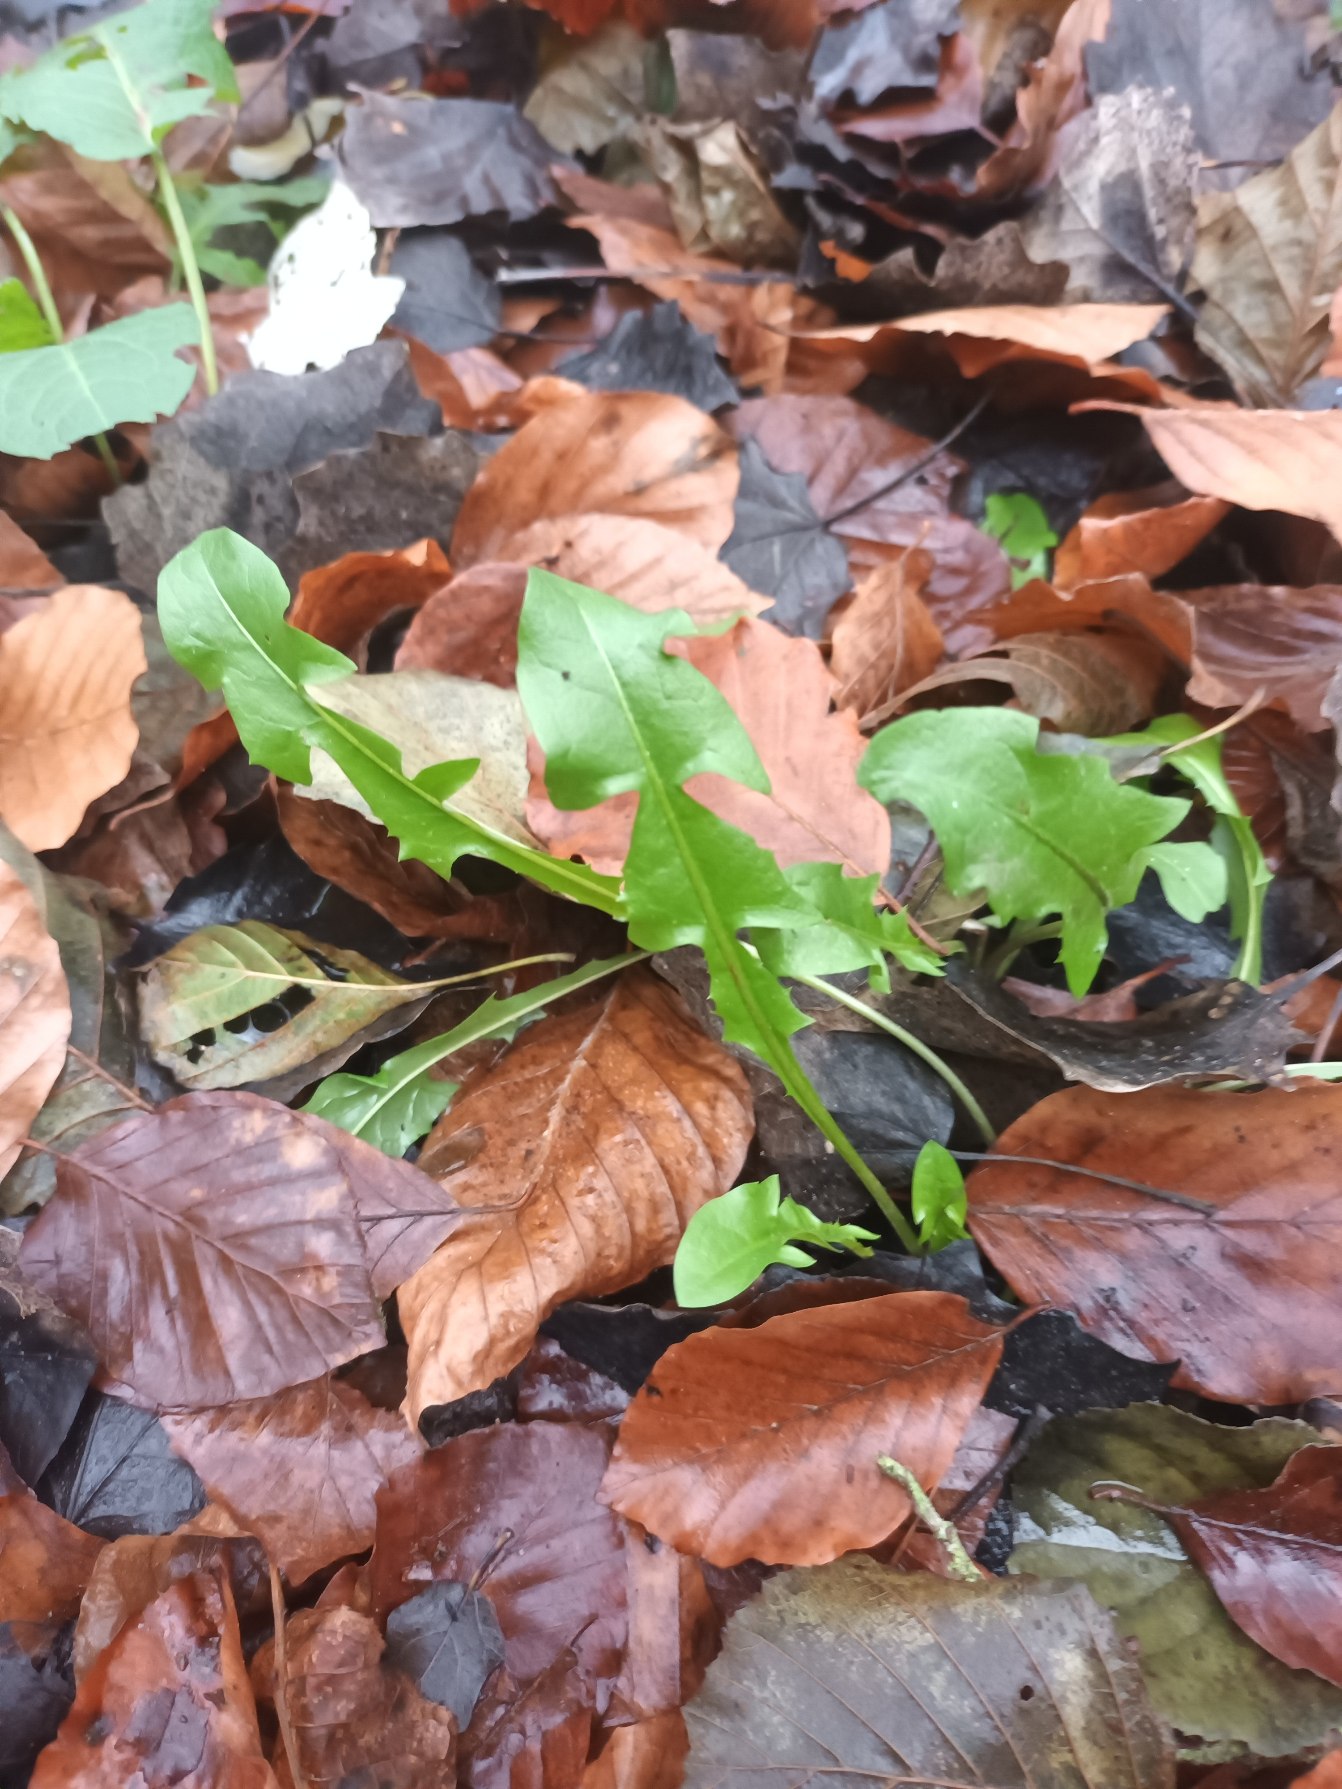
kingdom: Plantae
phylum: Tracheophyta
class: Magnoliopsida
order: Asterales
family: Asteraceae
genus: Taraxacum
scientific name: Taraxacum
